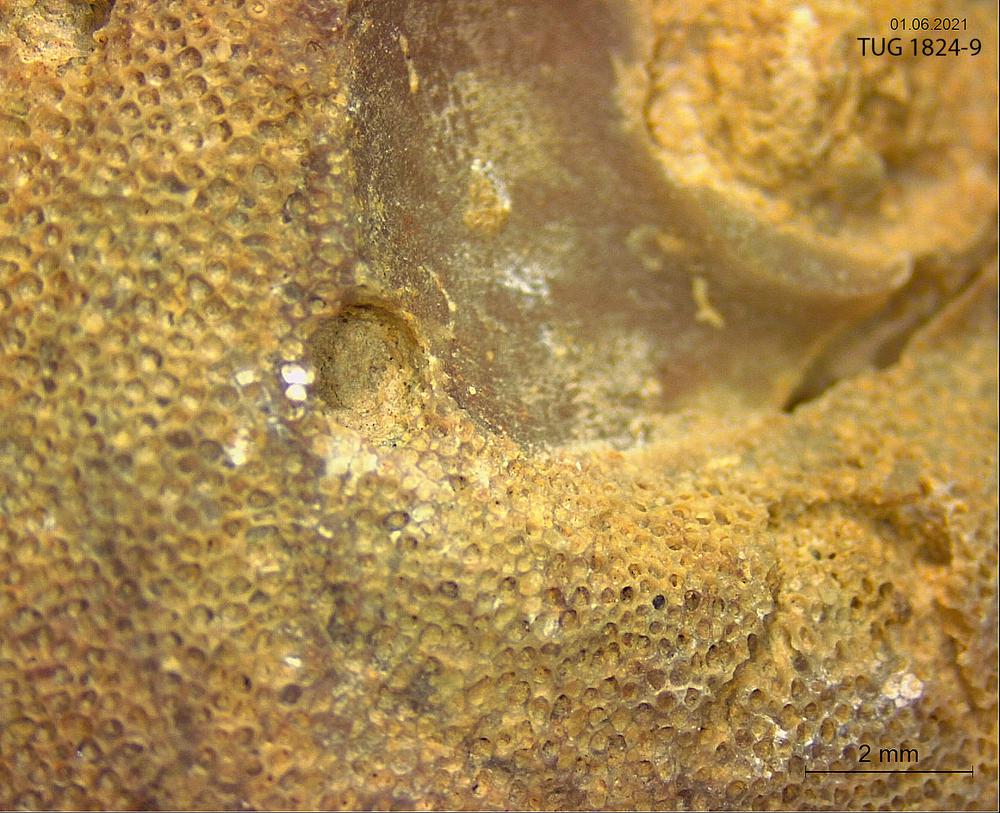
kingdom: Animalia
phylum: Bryozoa
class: Stenolaemata
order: Trepostomatida
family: Diplotrypidae
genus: Diplotrypa
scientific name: Diplotrypa
